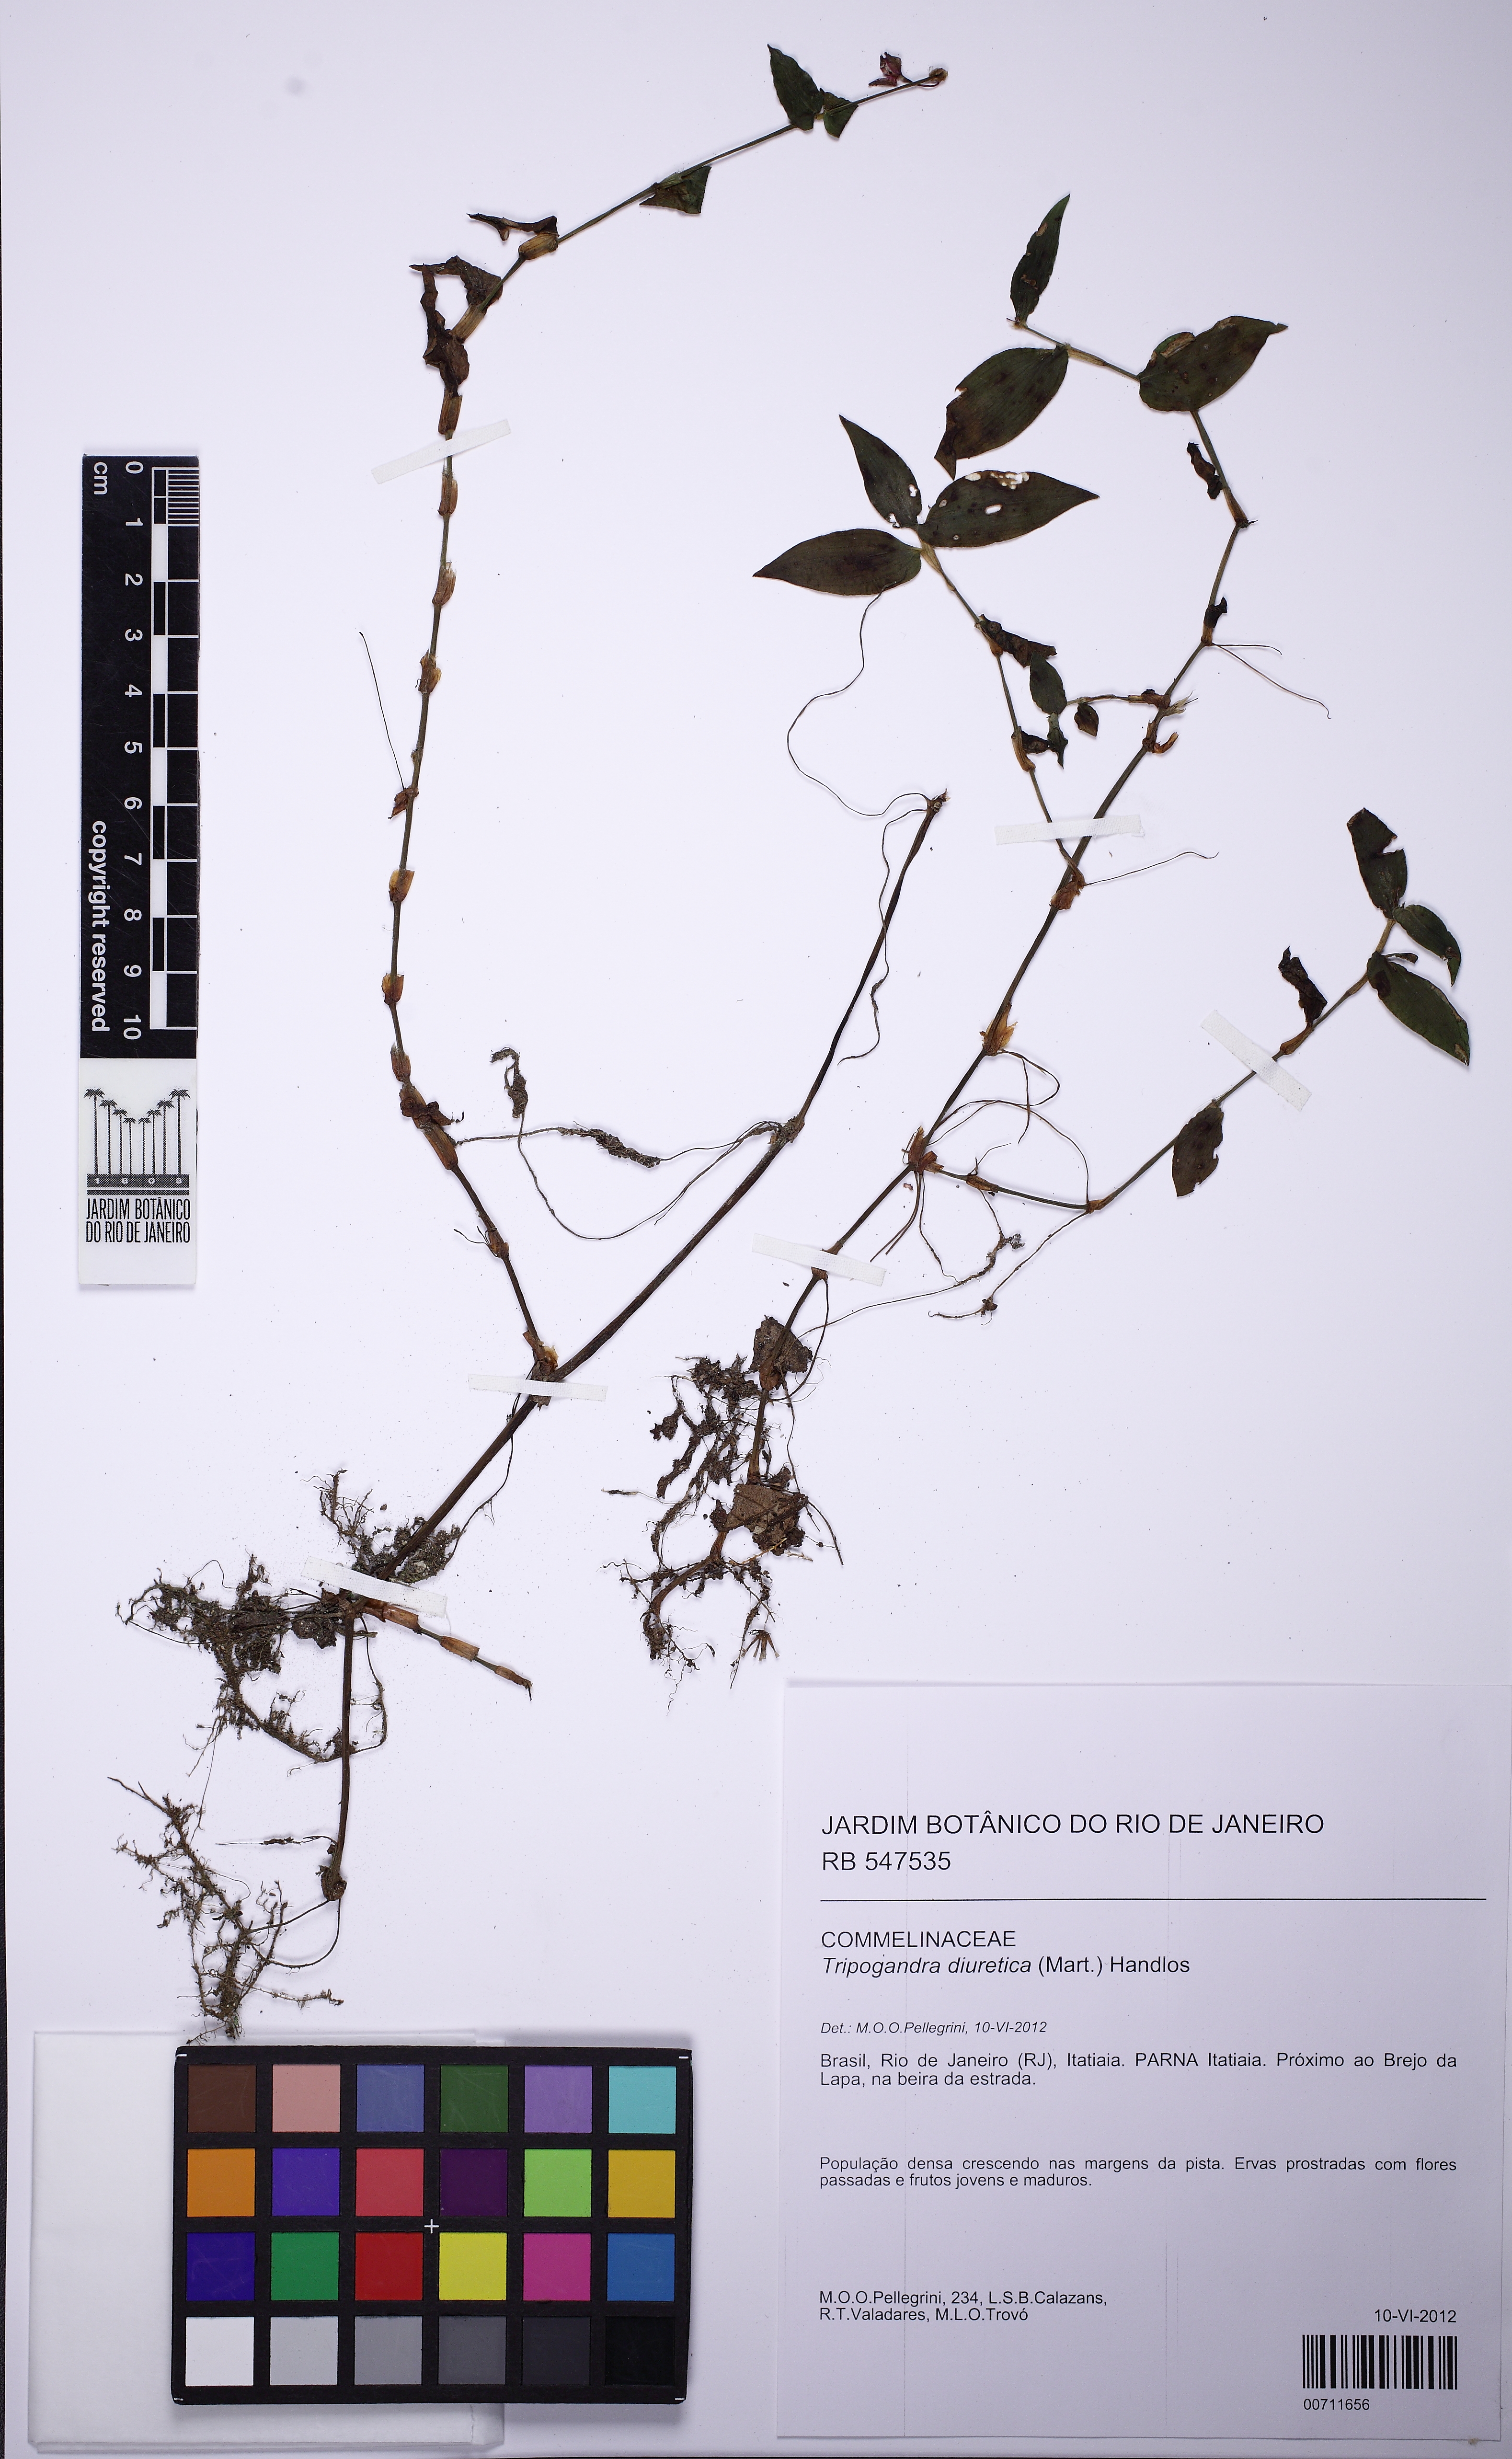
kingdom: Plantae
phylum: Tracheophyta
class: Liliopsida
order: Commelinales
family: Commelinaceae
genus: Callisia
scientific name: Callisia diuretica
